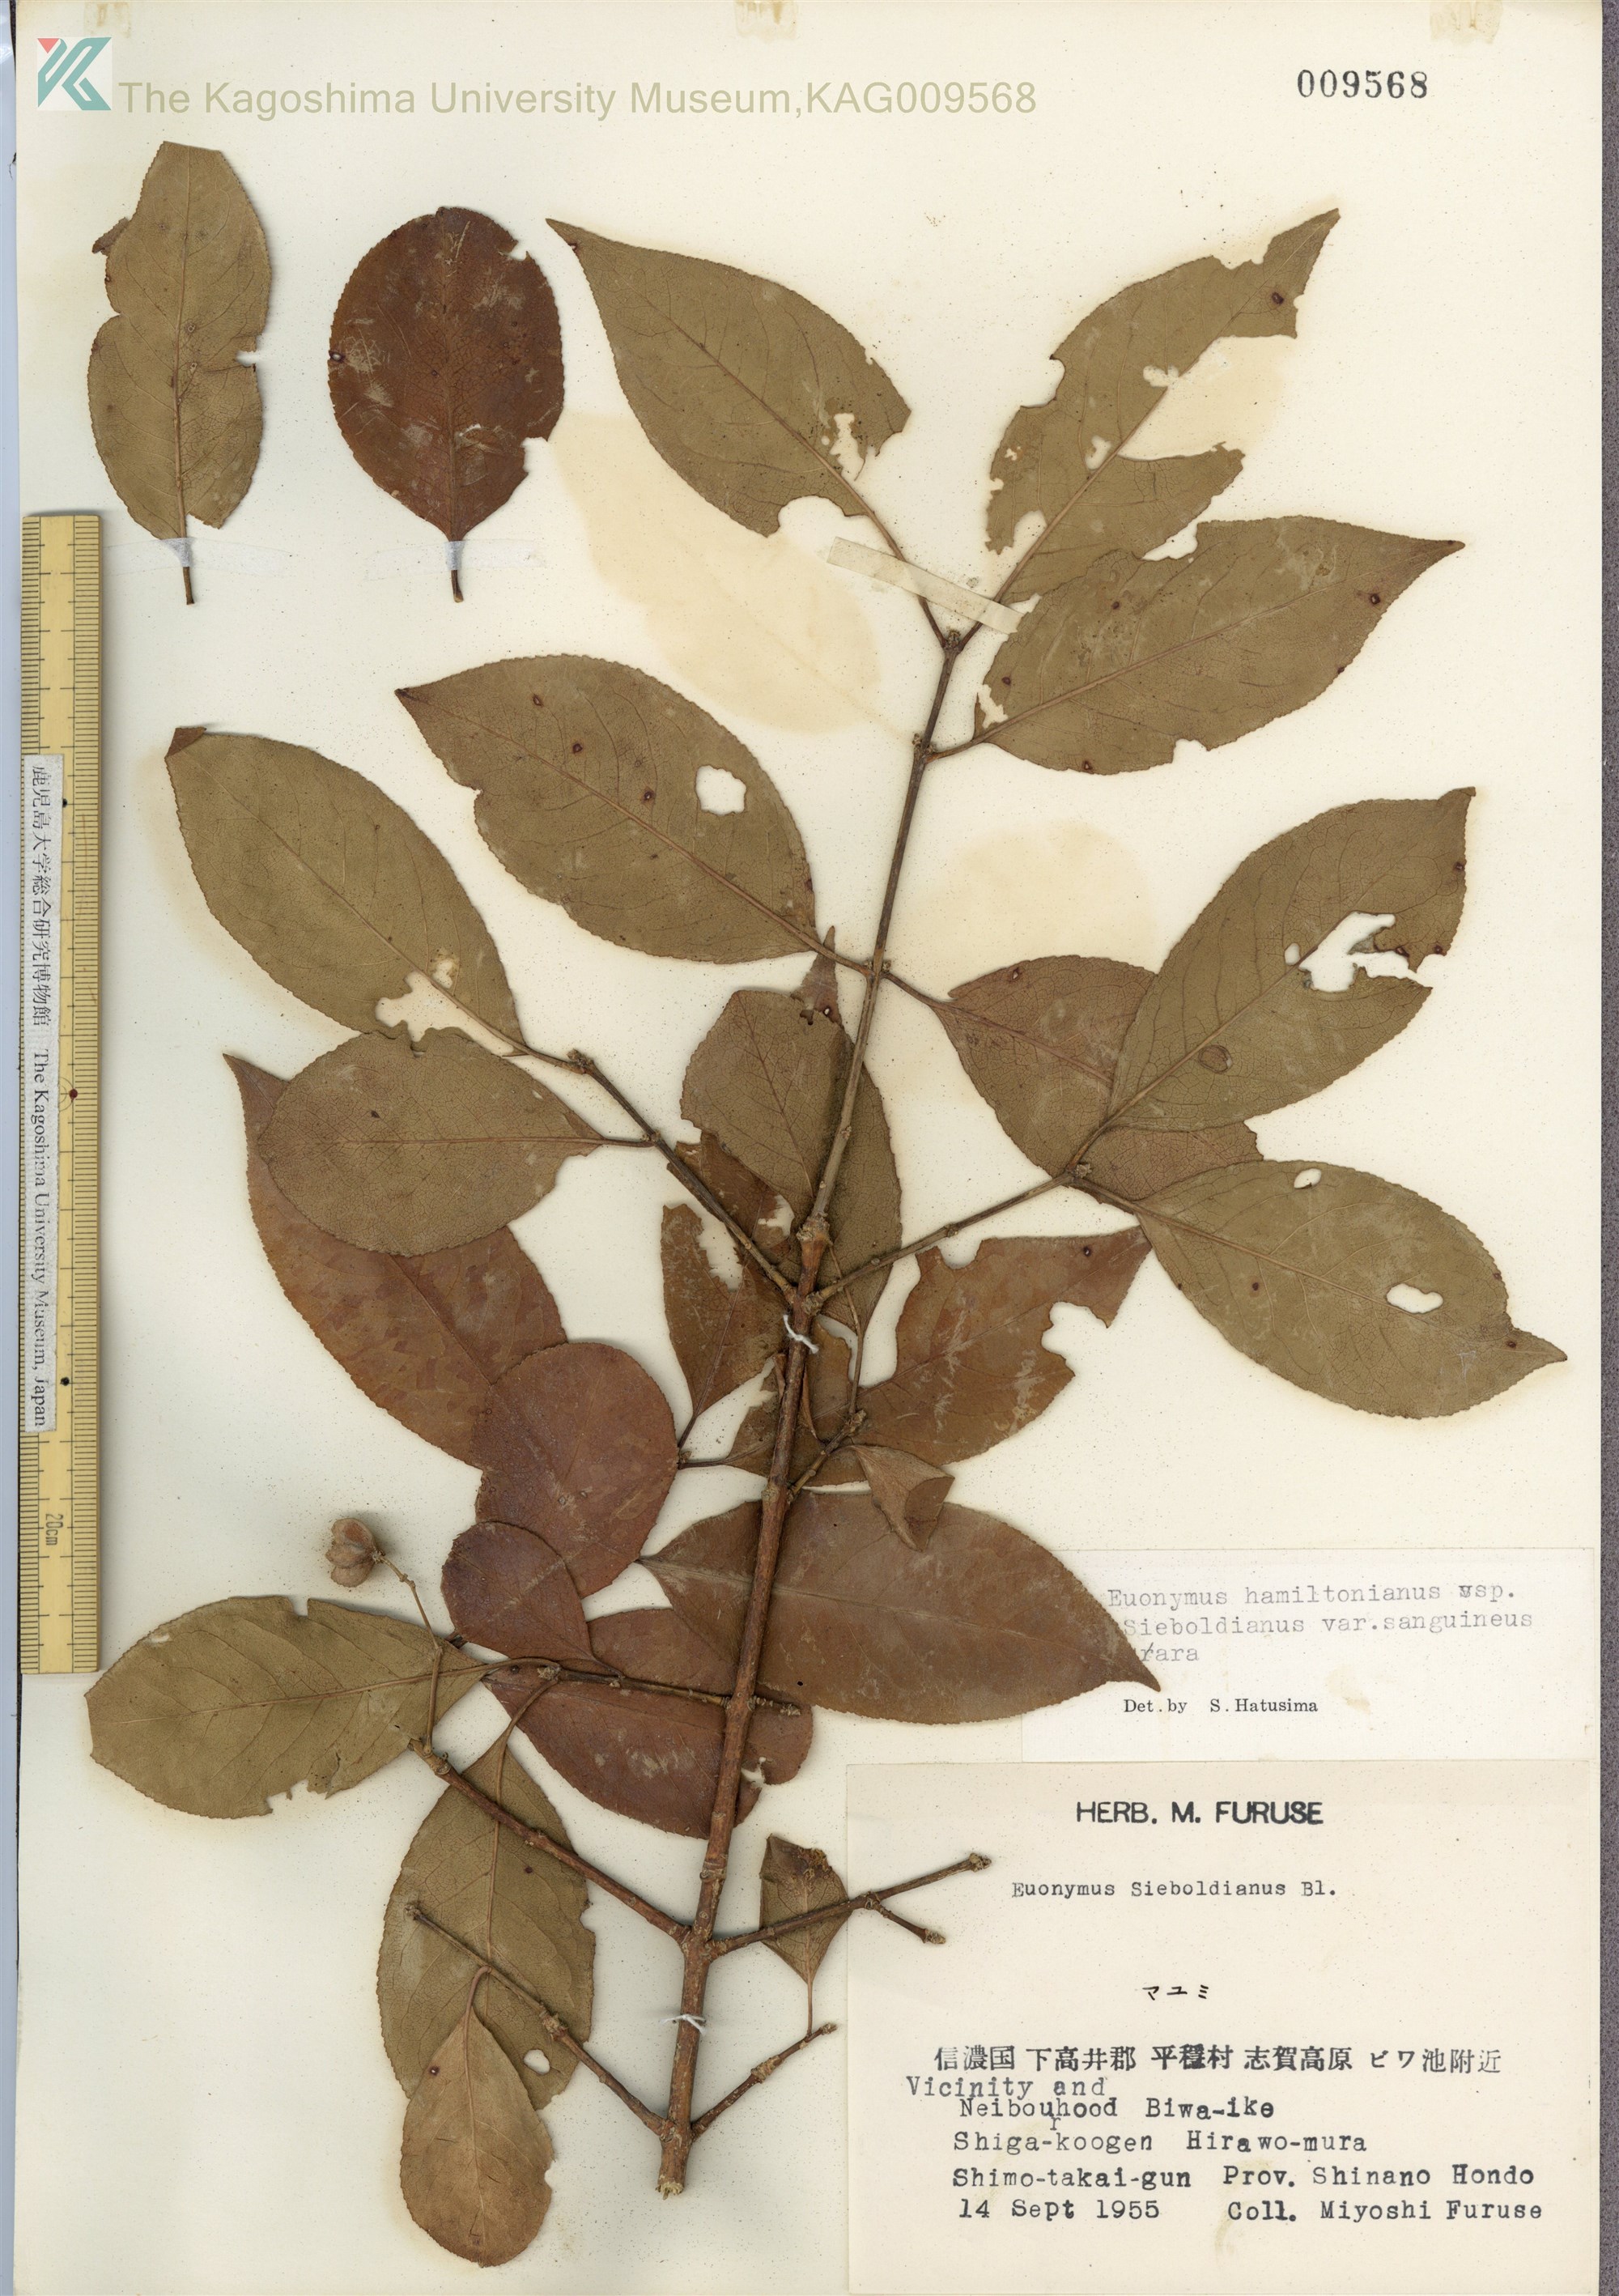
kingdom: Plantae
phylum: Tracheophyta
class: Magnoliopsida
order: Celastrales
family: Celastraceae
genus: Euonymus
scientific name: Euonymus hamiltonianus
